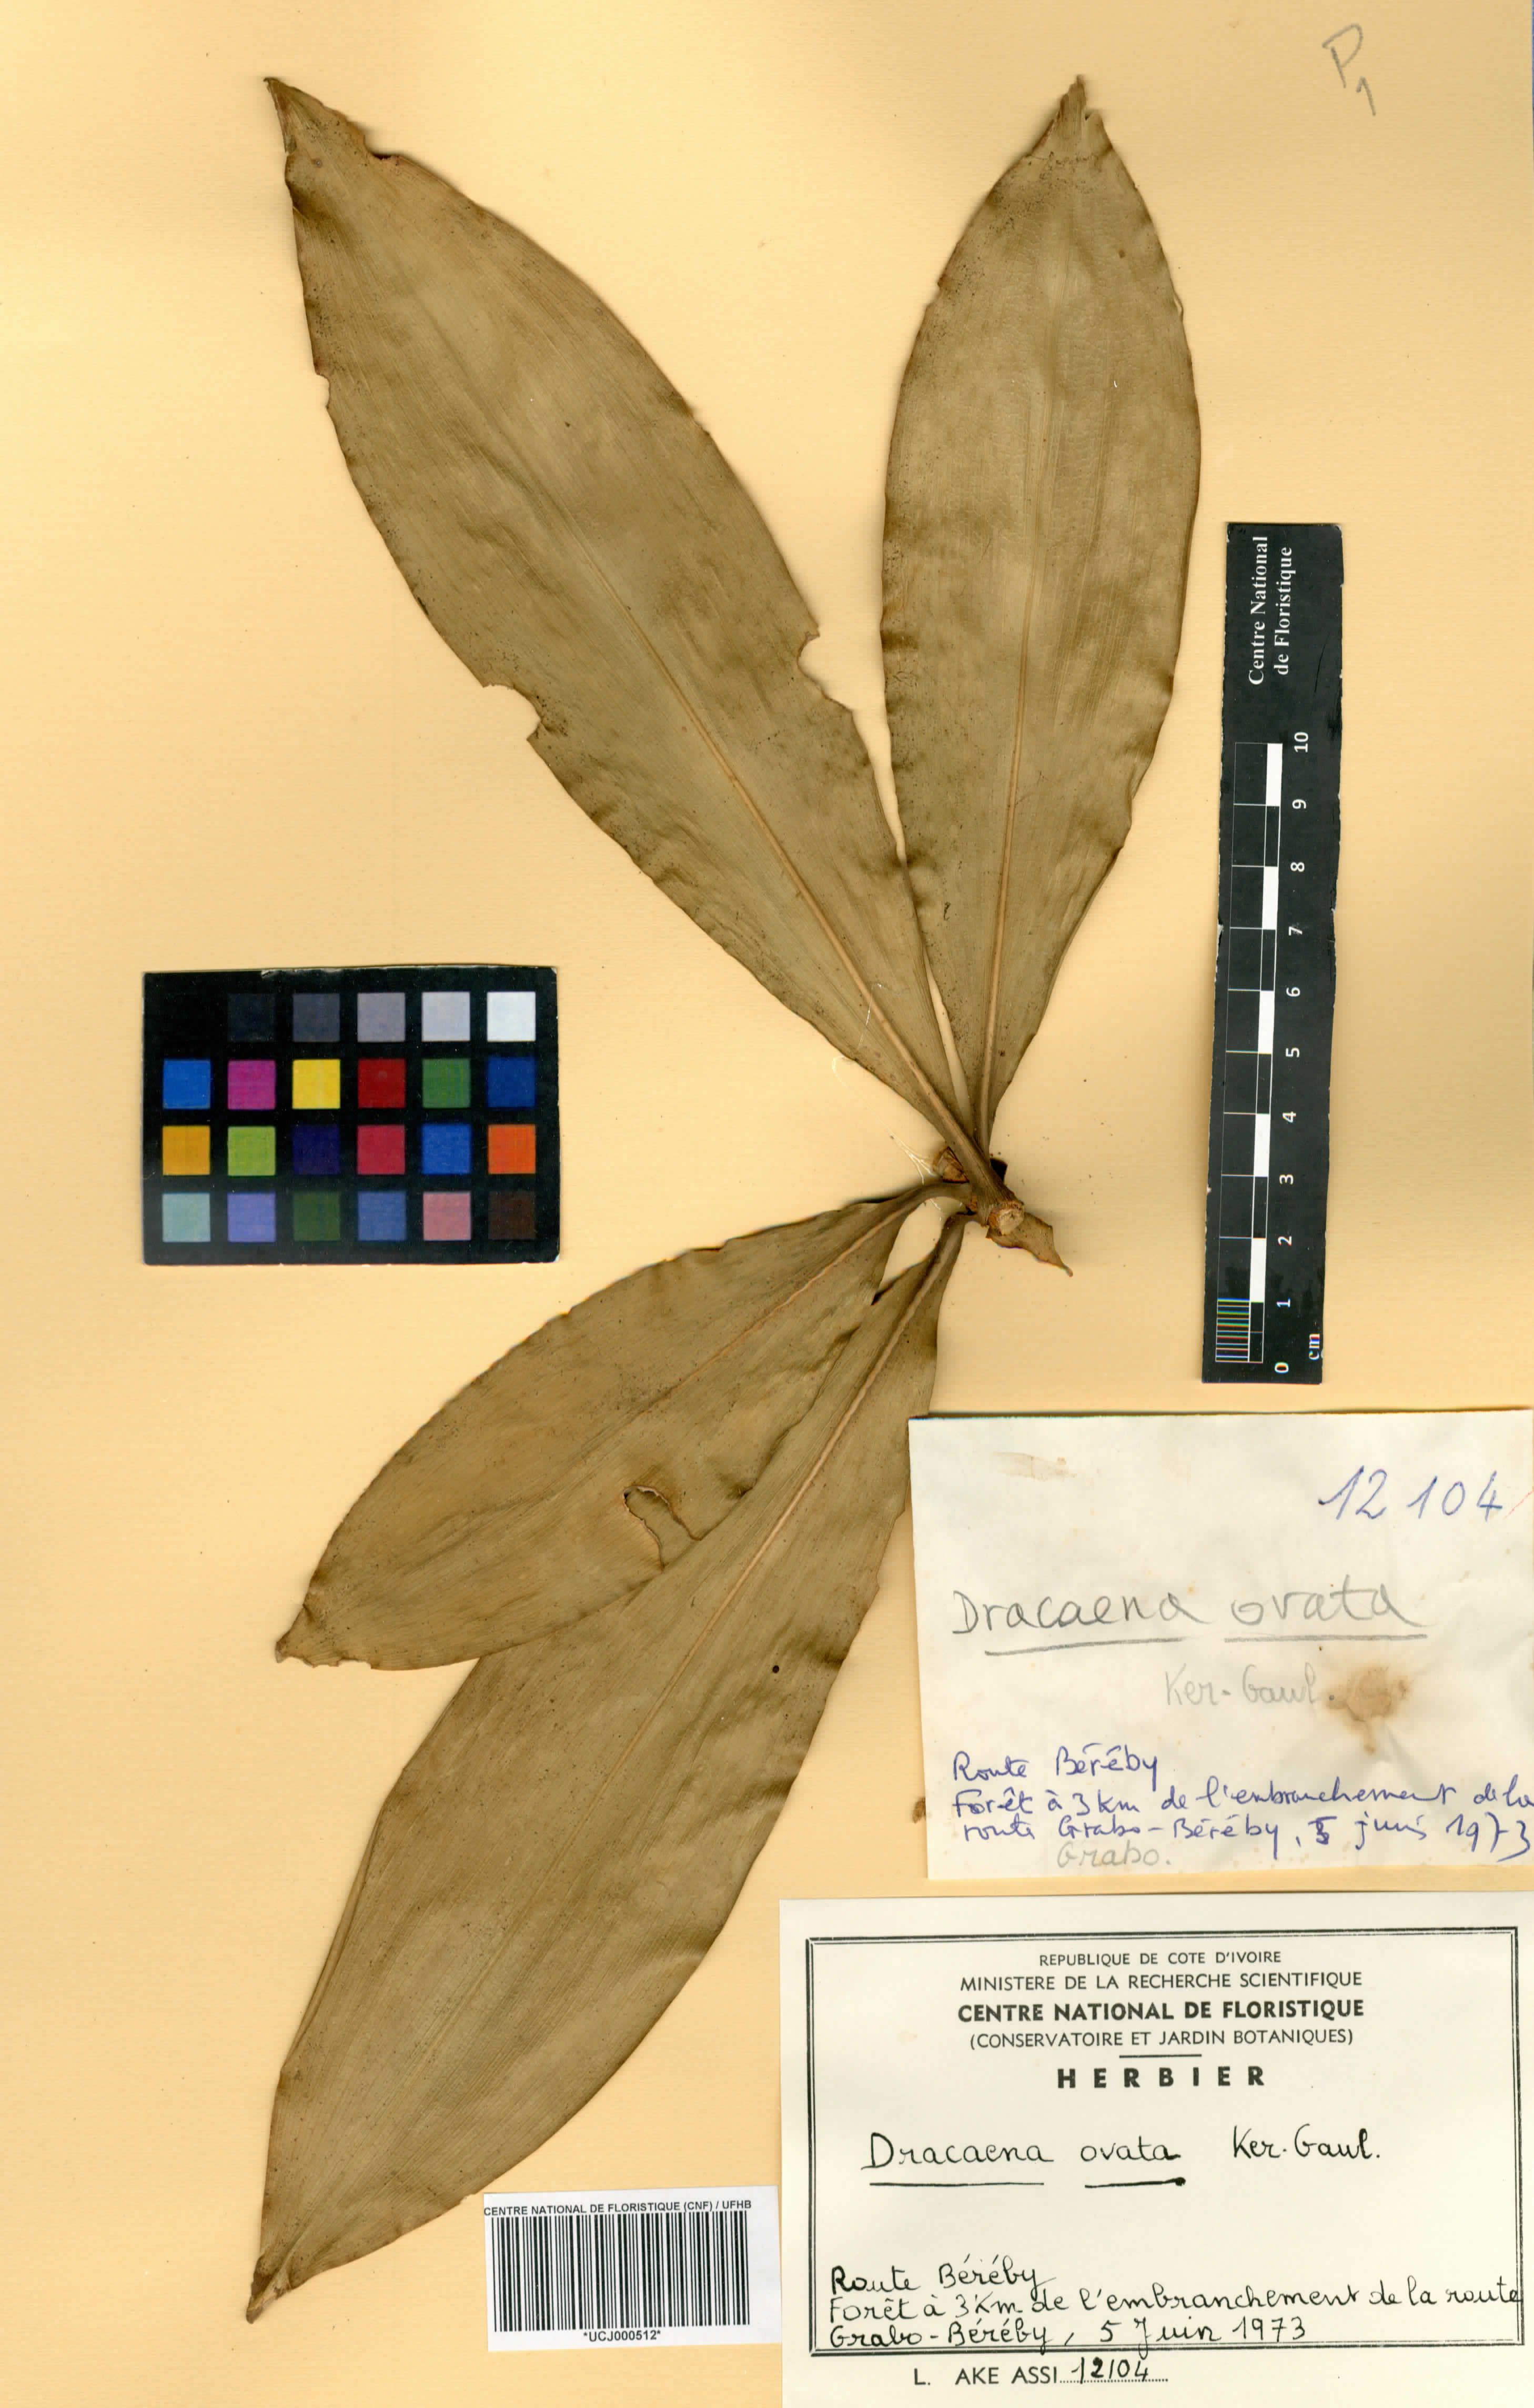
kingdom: Plantae
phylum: Tracheophyta
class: Liliopsida
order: Asparagales
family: Asparagaceae
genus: Dracaena
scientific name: Dracaena ovata
